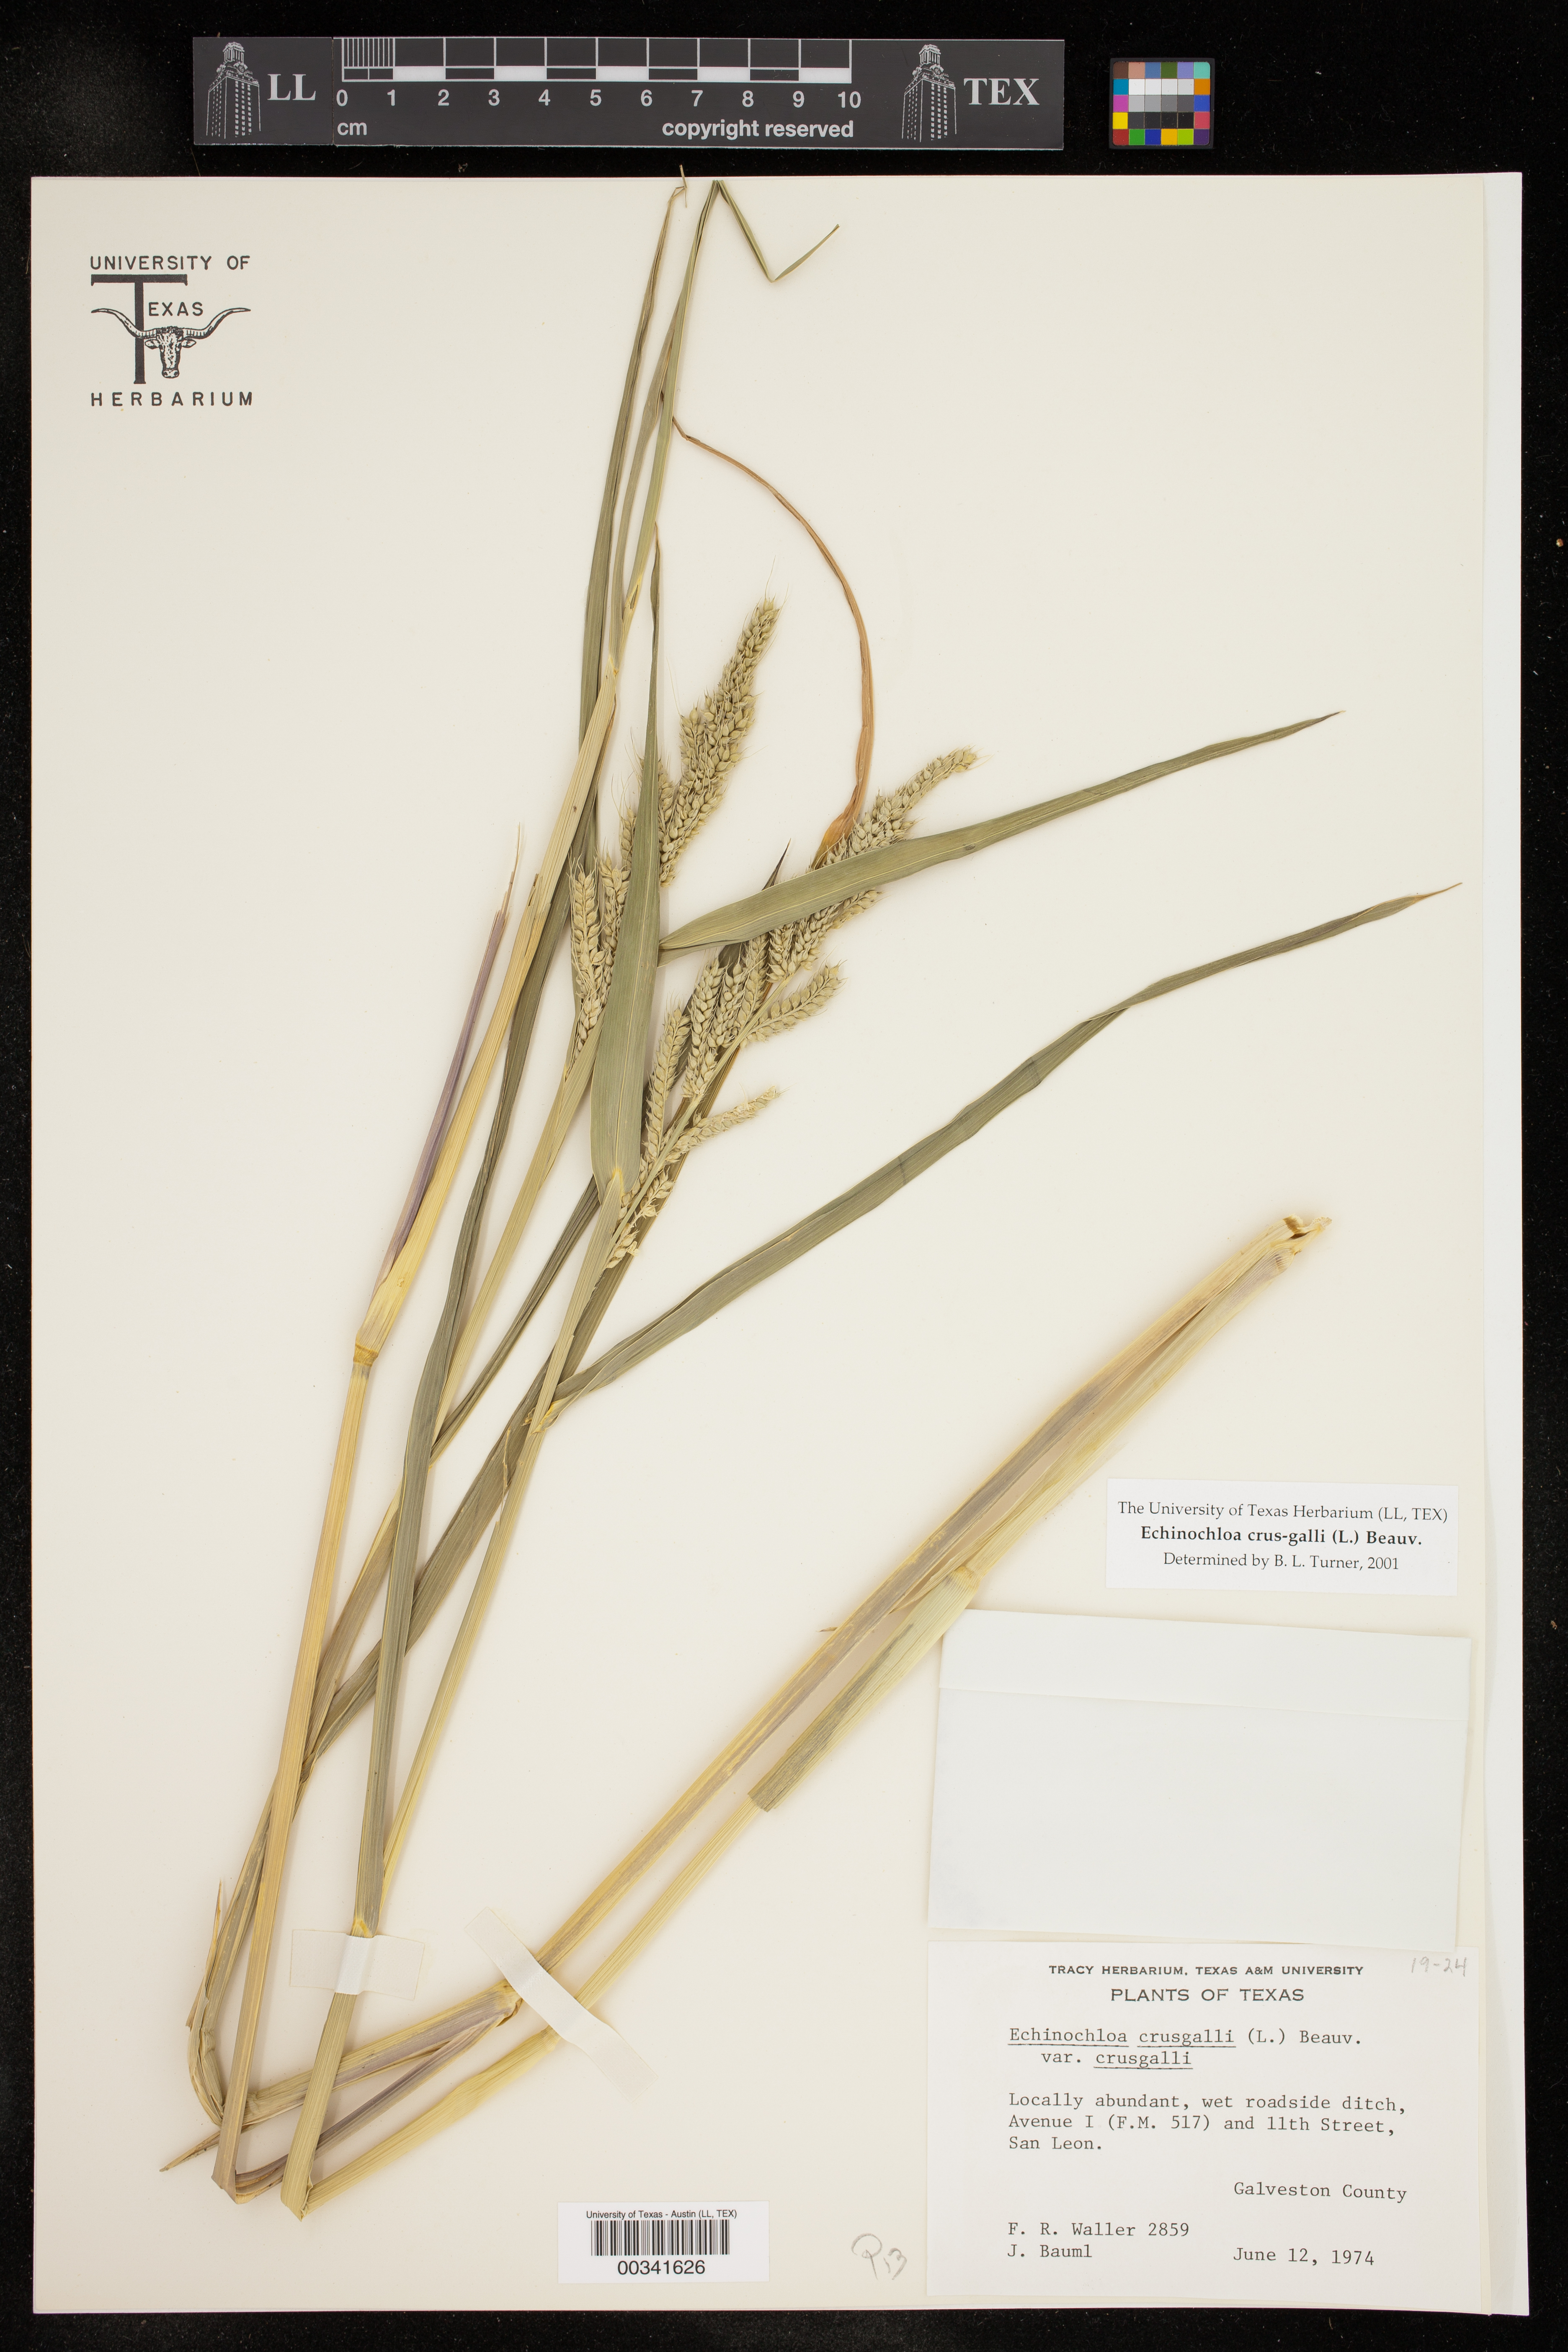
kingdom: Plantae
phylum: Tracheophyta
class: Liliopsida
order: Poales
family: Poaceae
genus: Echinochloa
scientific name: Echinochloa crus-galli
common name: Cockspur
